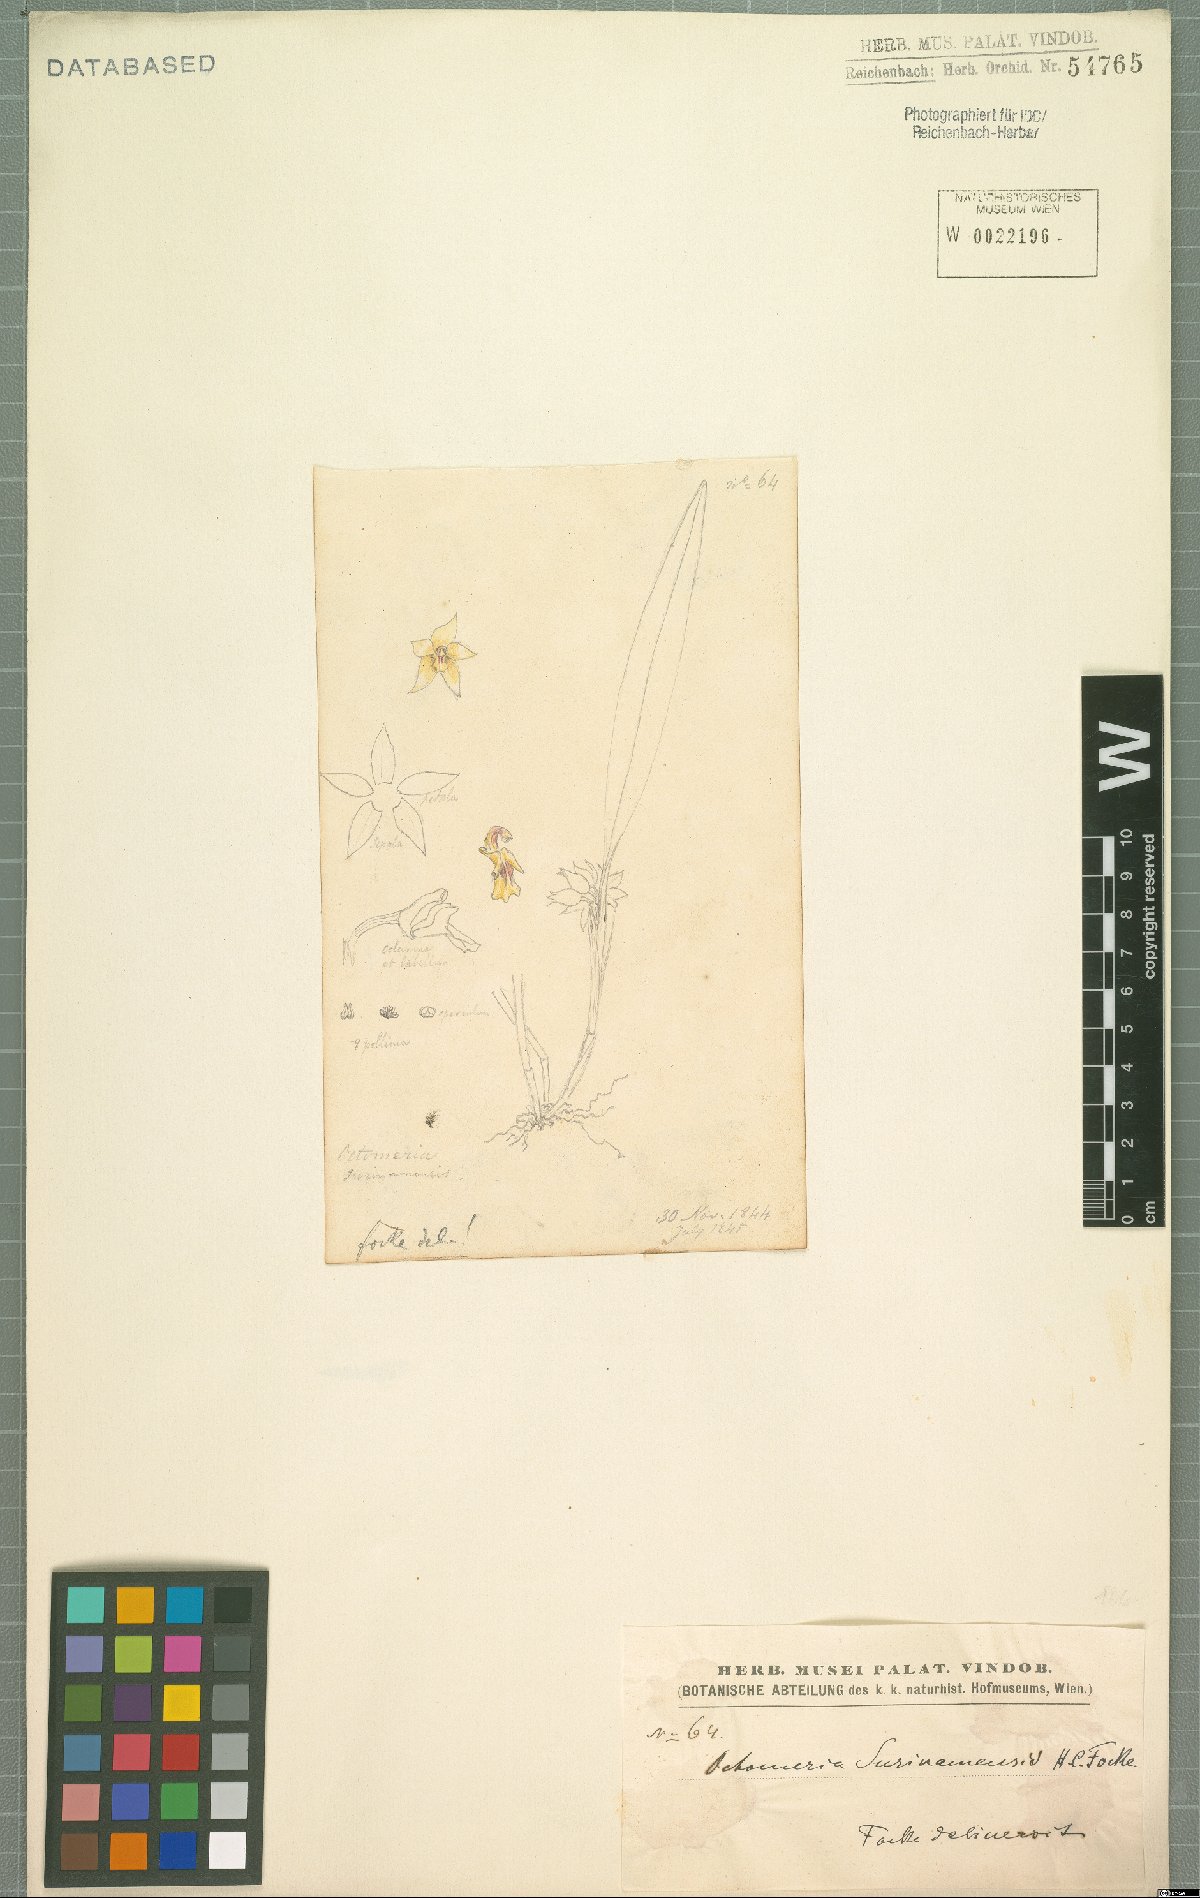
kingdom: Plantae
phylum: Tracheophyta
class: Liliopsida
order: Asparagales
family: Orchidaceae
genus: Octomeria
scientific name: Octomeria grandiflora
